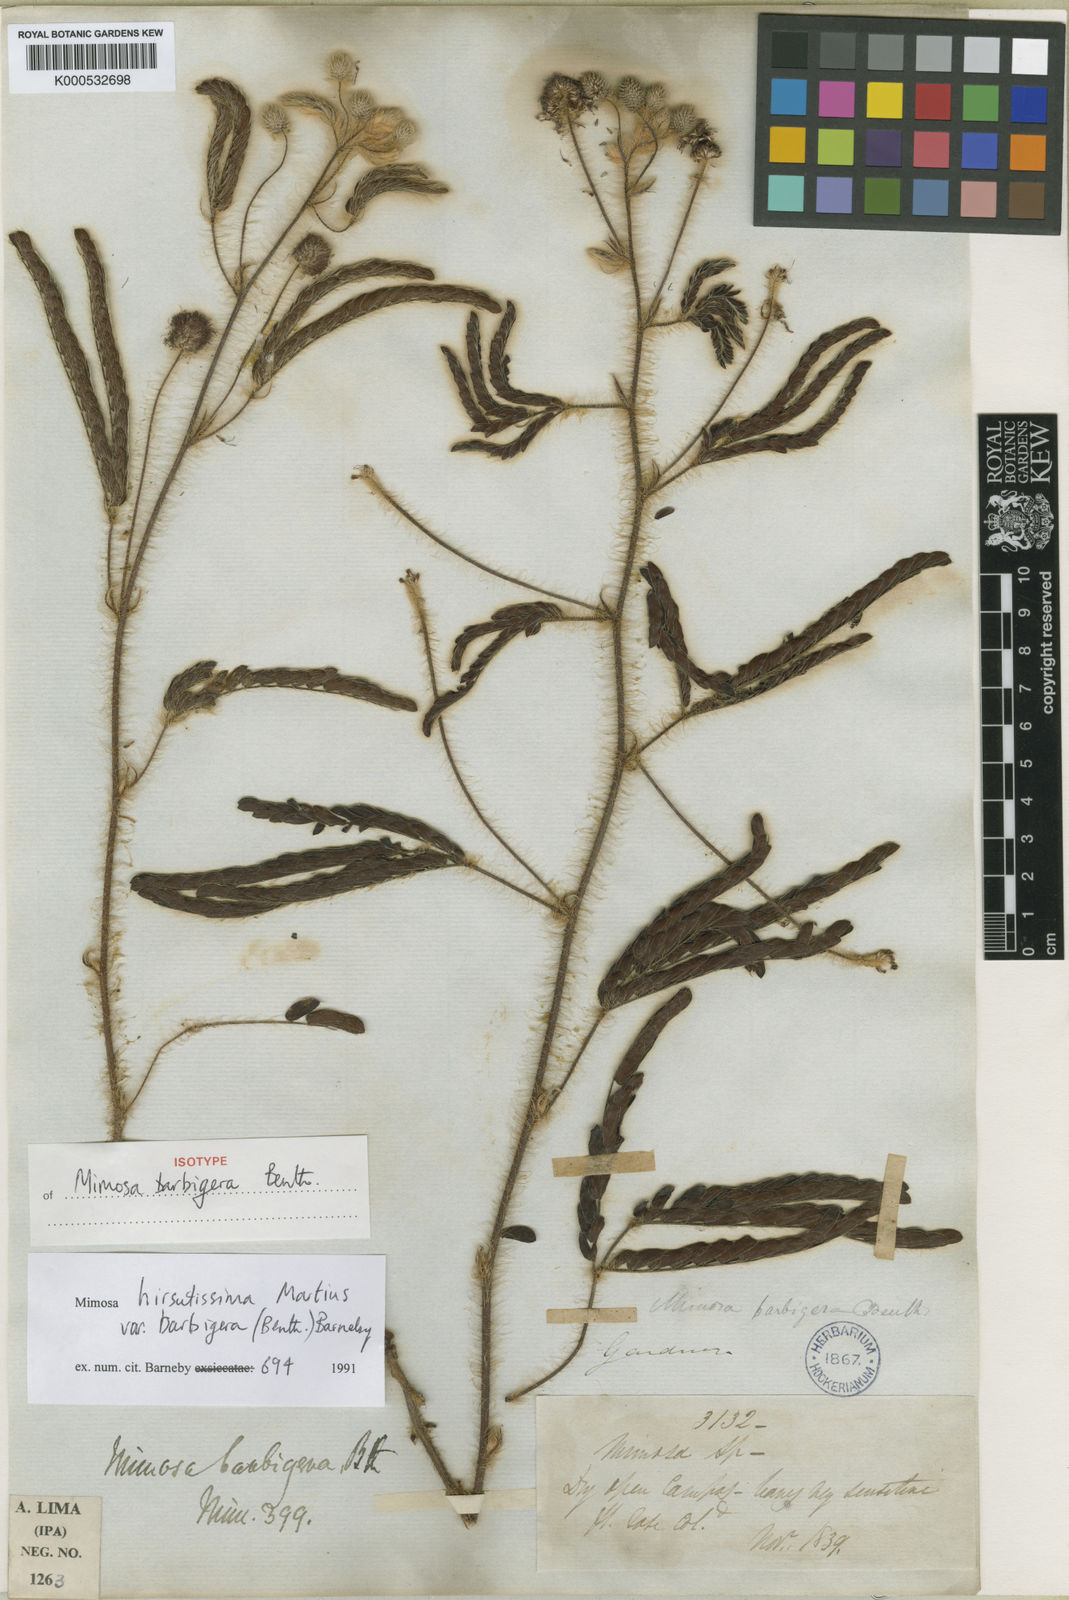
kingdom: Plantae
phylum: Tracheophyta
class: Magnoliopsida
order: Fabales
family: Fabaceae
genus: Mimosa
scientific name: Mimosa hirsutissima
